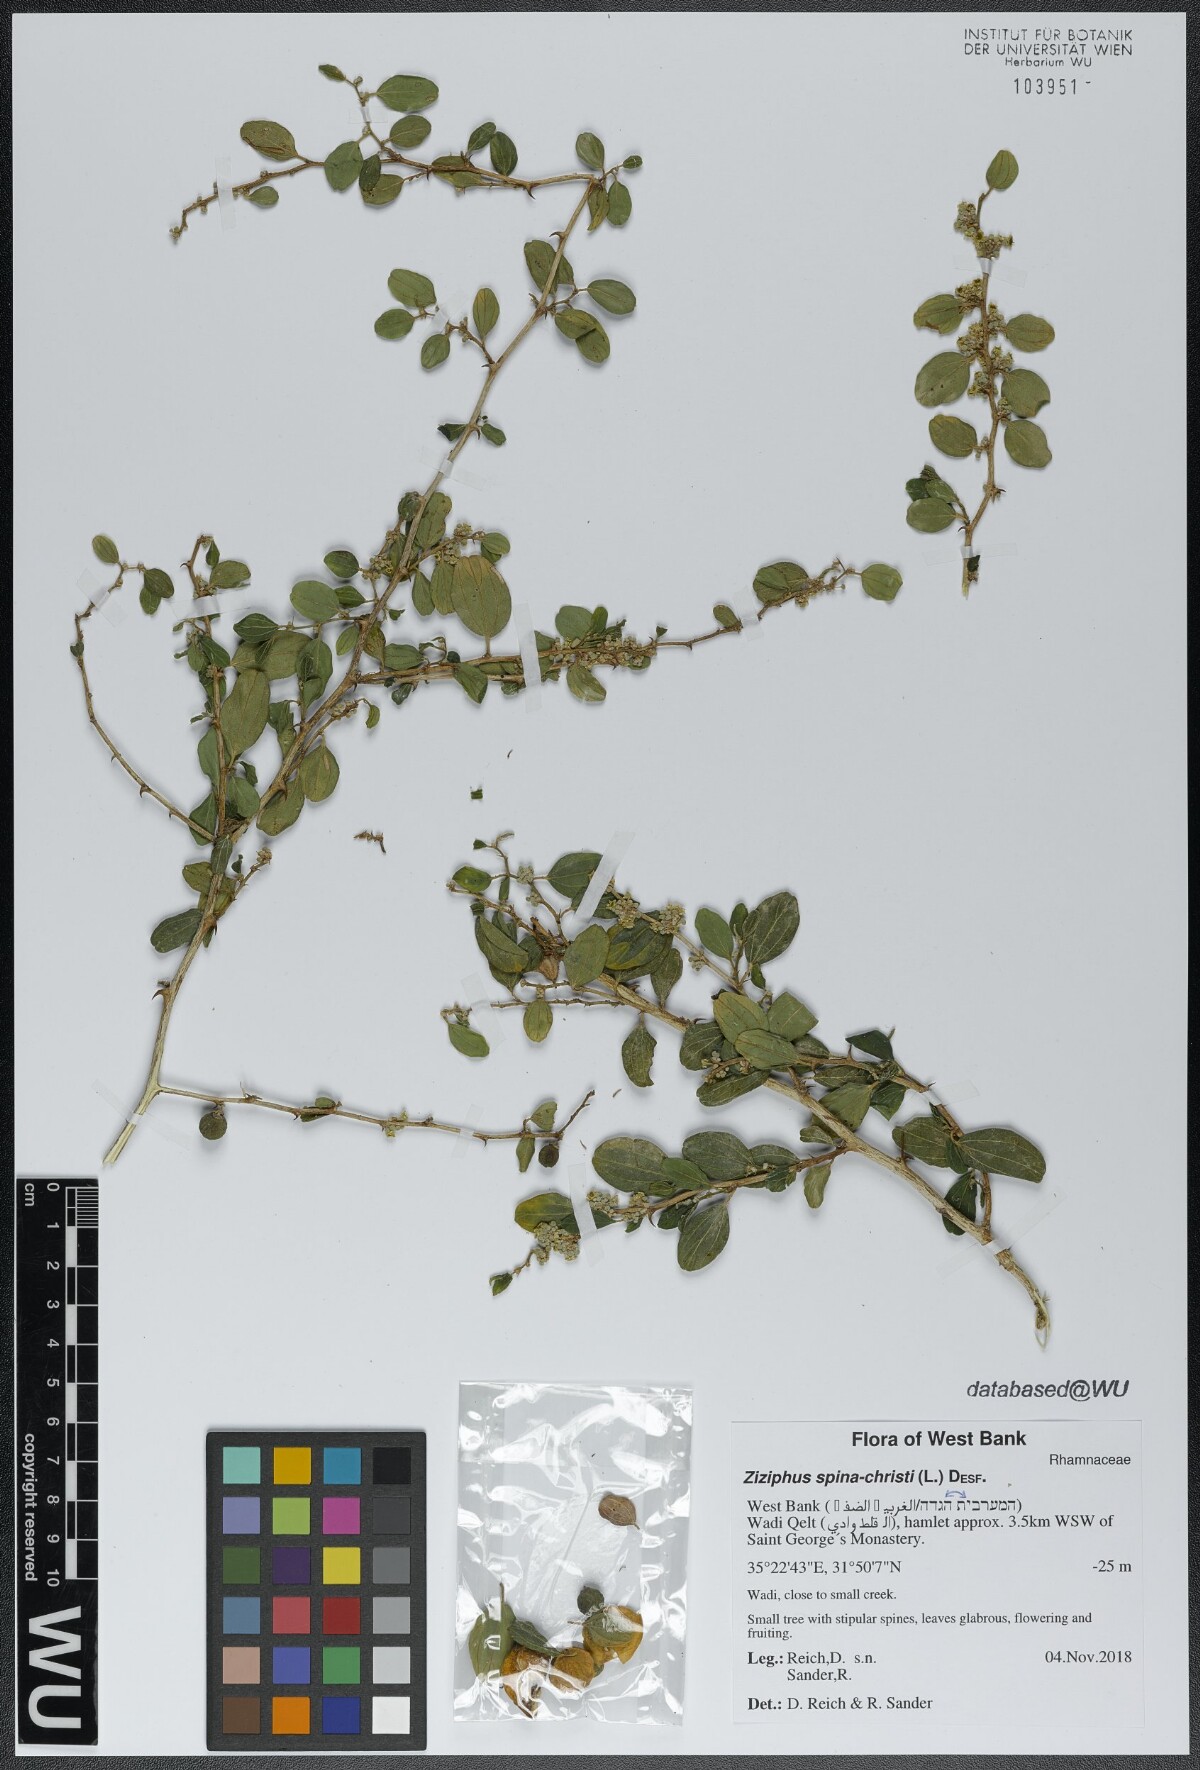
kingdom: Plantae
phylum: Tracheophyta
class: Magnoliopsida
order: Rosales
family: Rhamnaceae
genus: Ziziphus
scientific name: Ziziphus spina-christi
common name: Syrian christ-thorn
